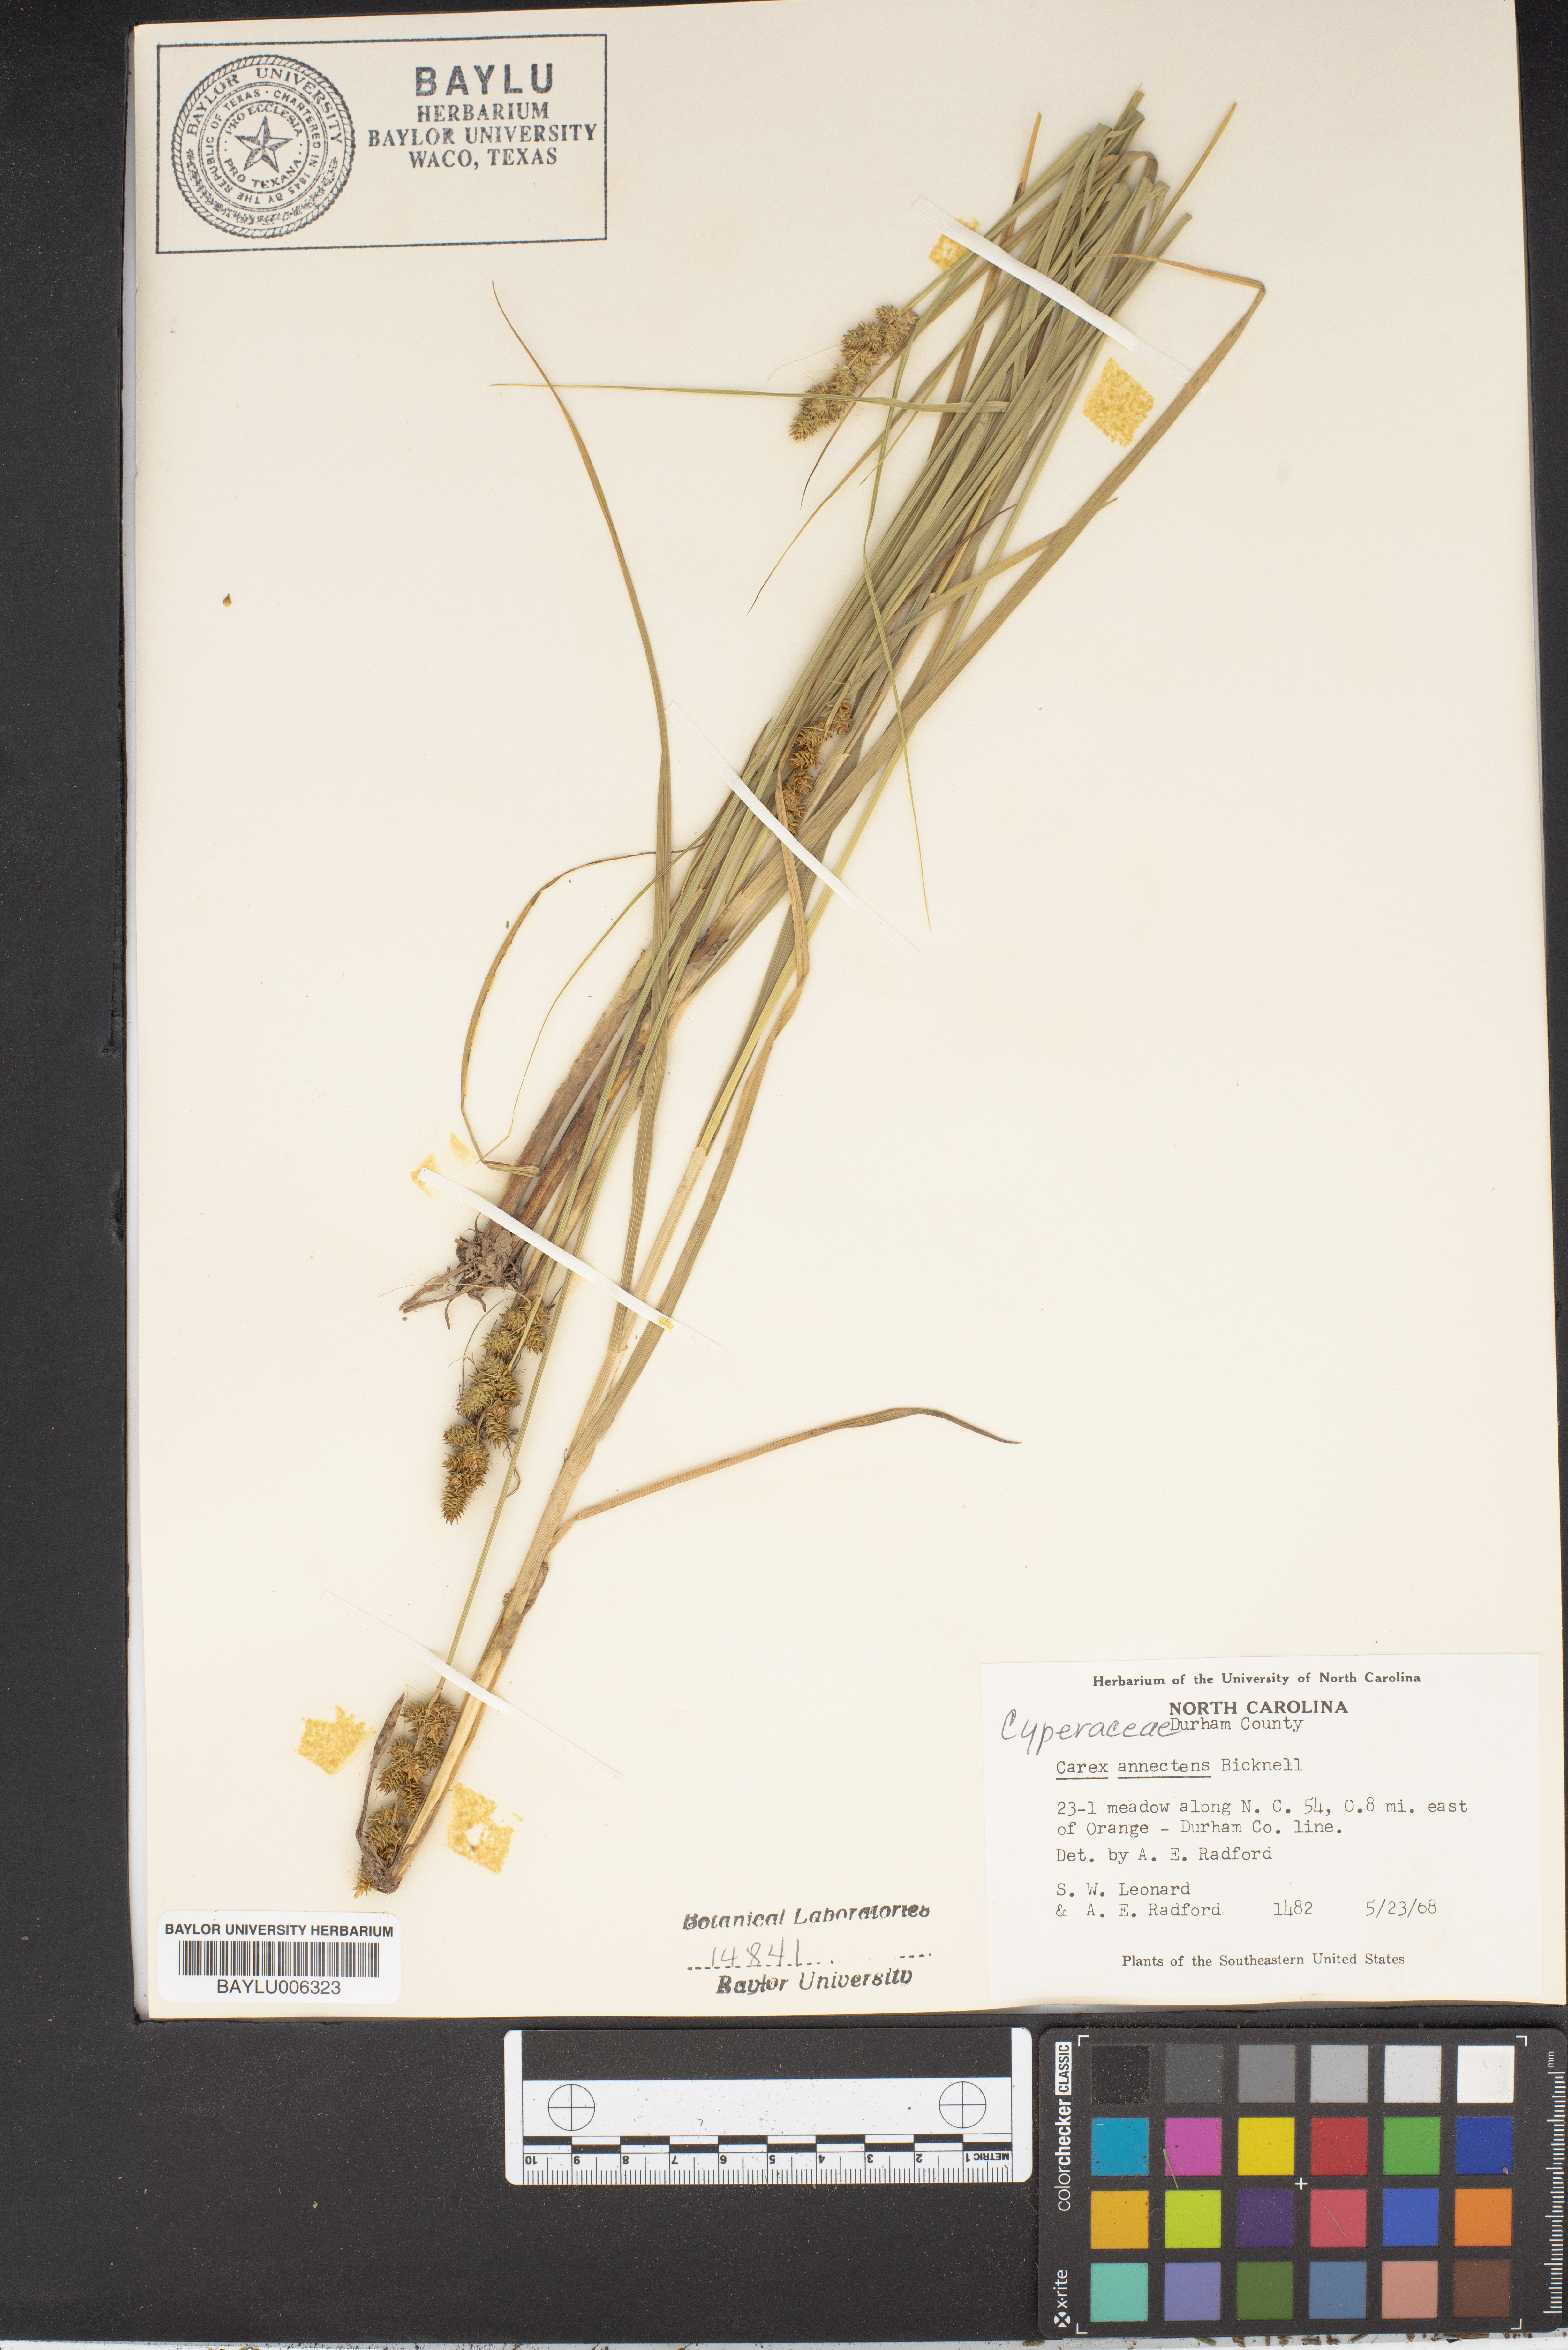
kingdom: Plantae
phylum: Tracheophyta
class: Liliopsida
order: Poales
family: Cyperaceae
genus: Carex
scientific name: Carex annectens
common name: Large fox sedge
